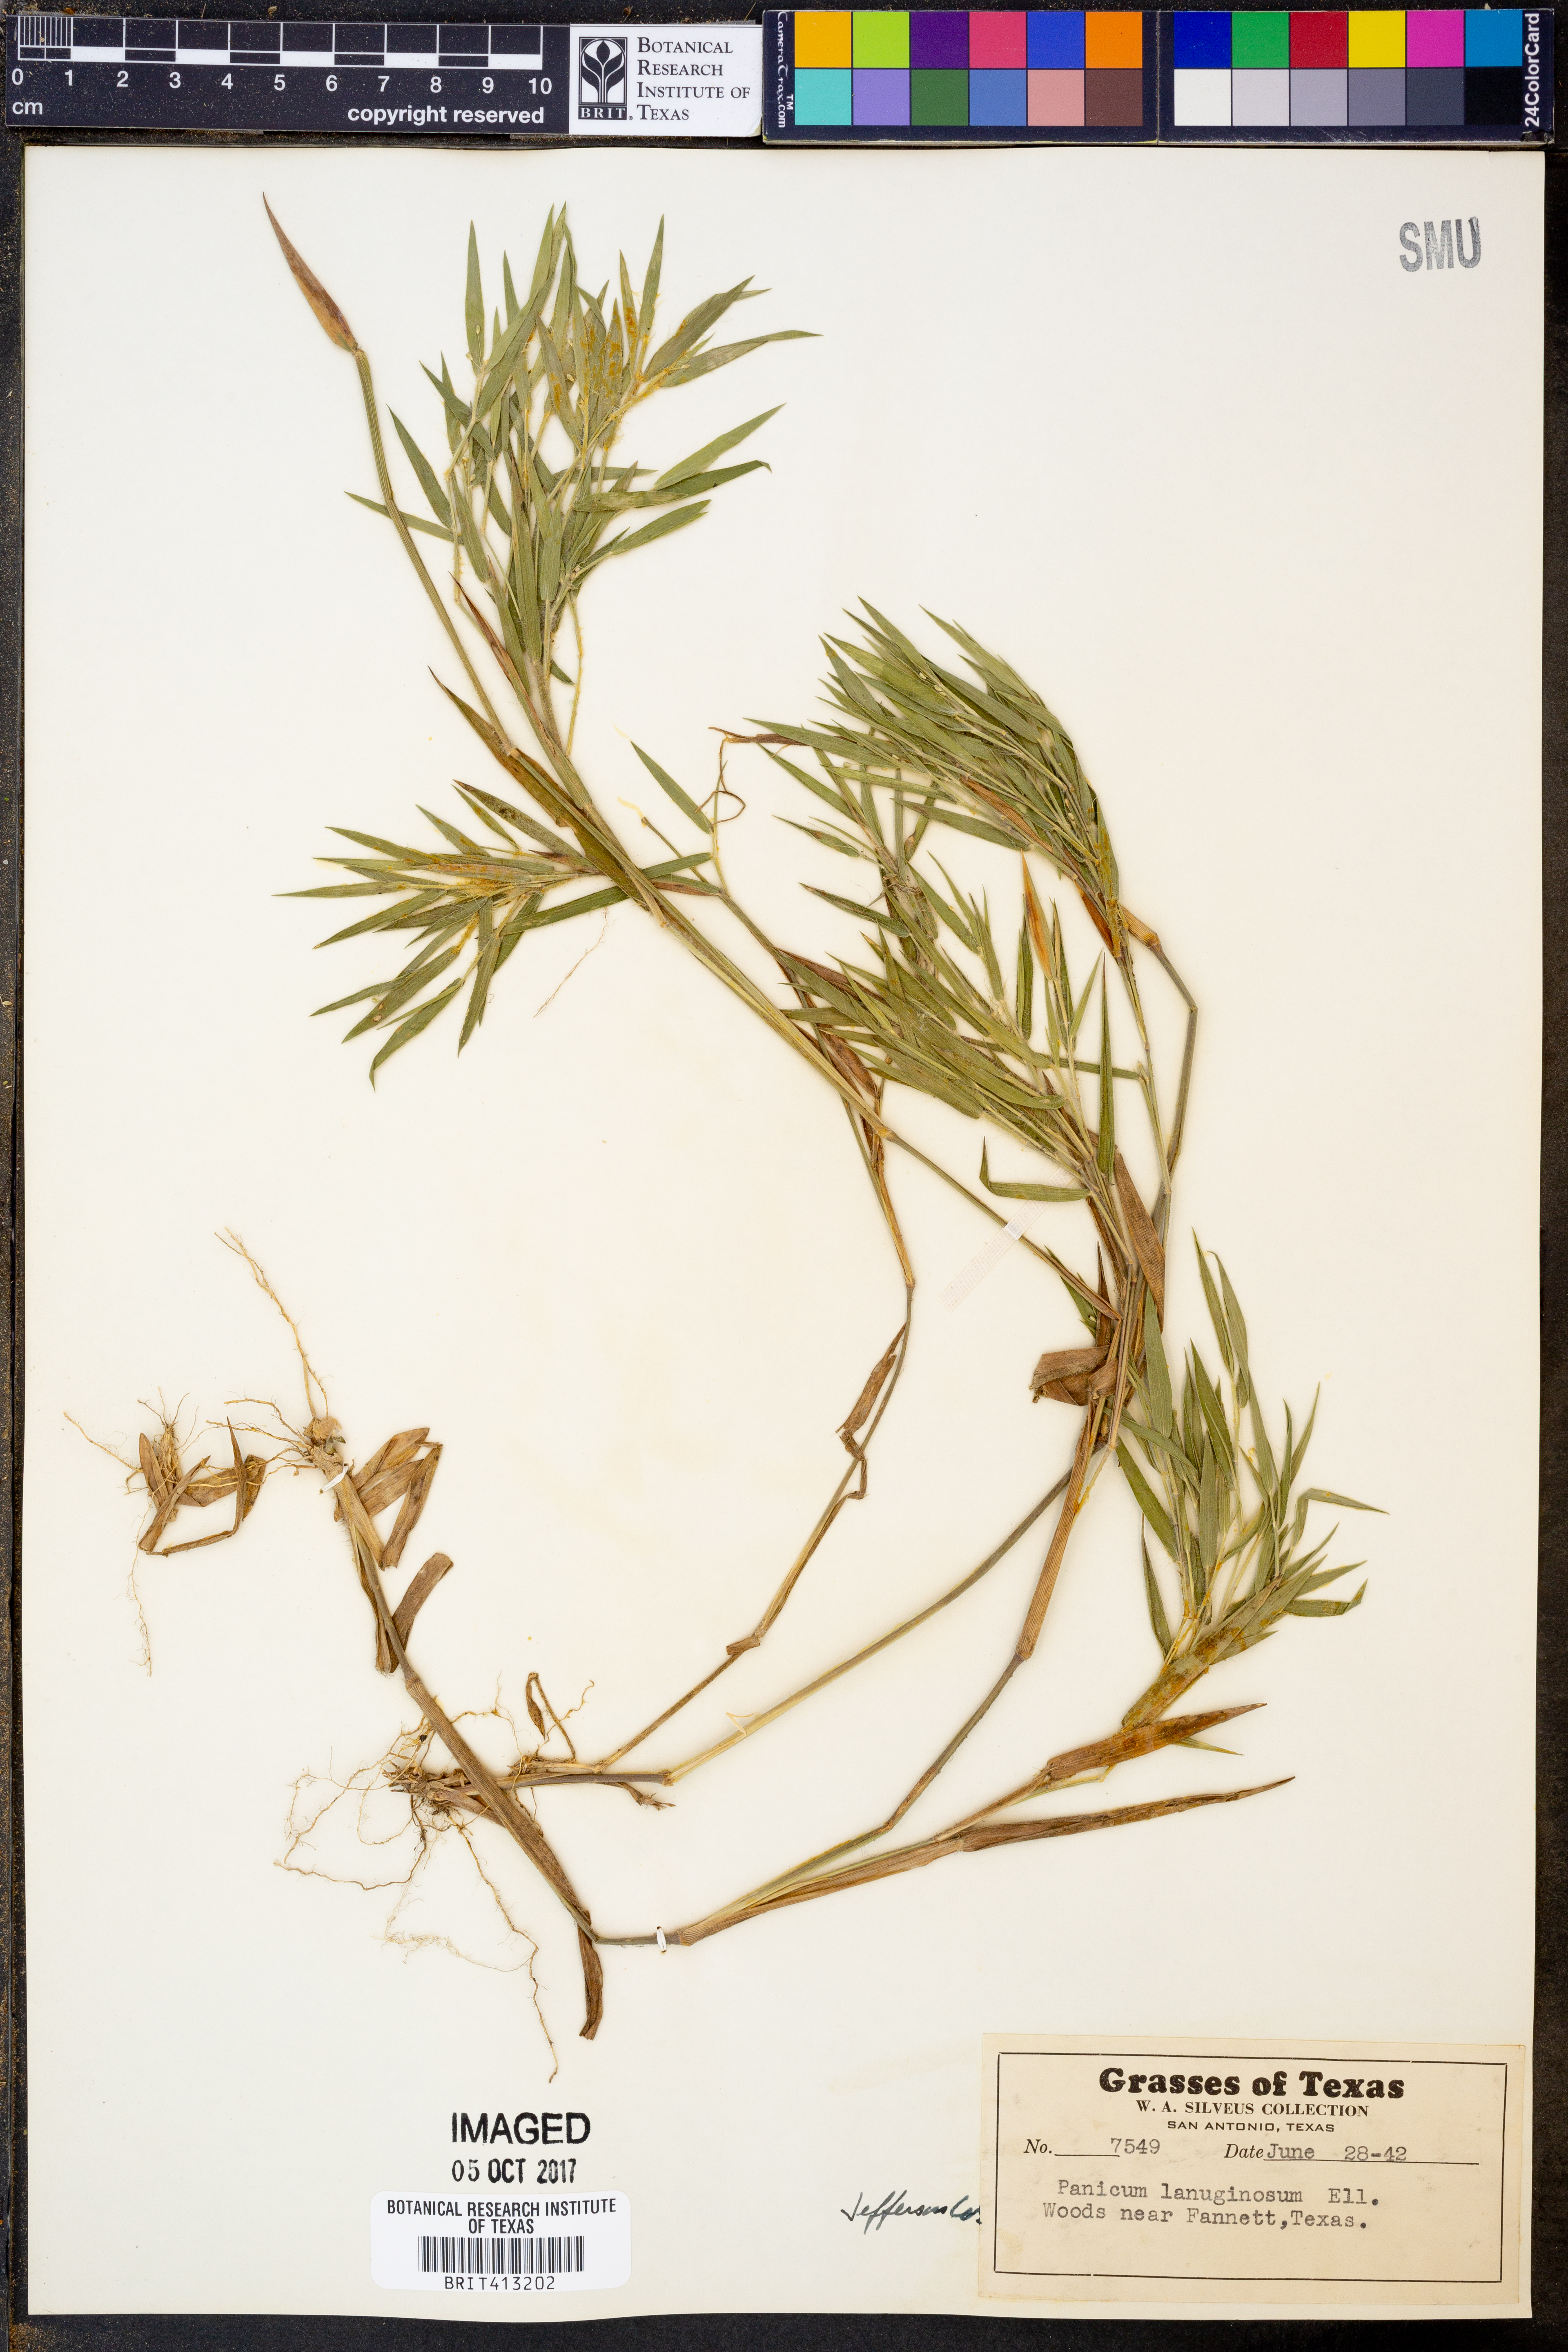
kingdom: Plantae
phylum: Tracheophyta
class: Liliopsida
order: Poales
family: Poaceae
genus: Dichanthelium
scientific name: Dichanthelium lanuginosum
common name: Woolly panicgrass
